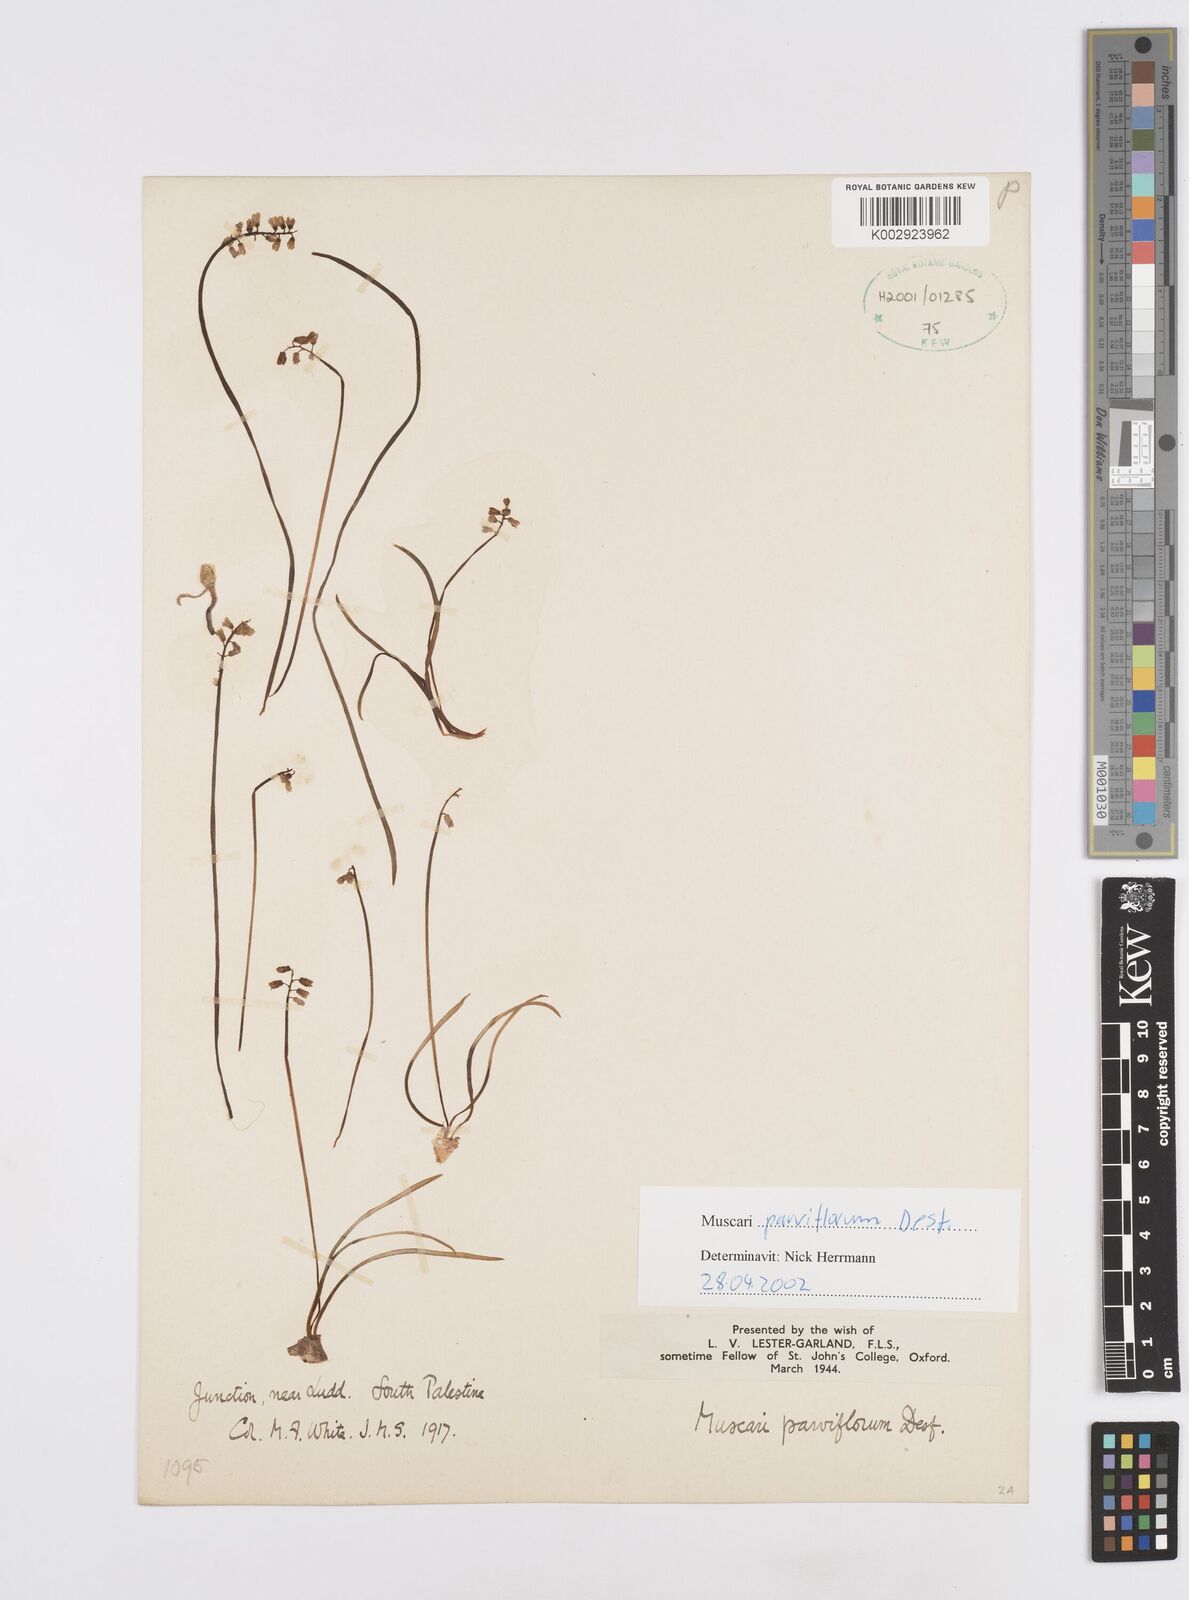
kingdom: Plantae
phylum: Tracheophyta
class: Liliopsida
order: Asparagales
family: Asparagaceae
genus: Muscari
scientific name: Muscari parviflorum
